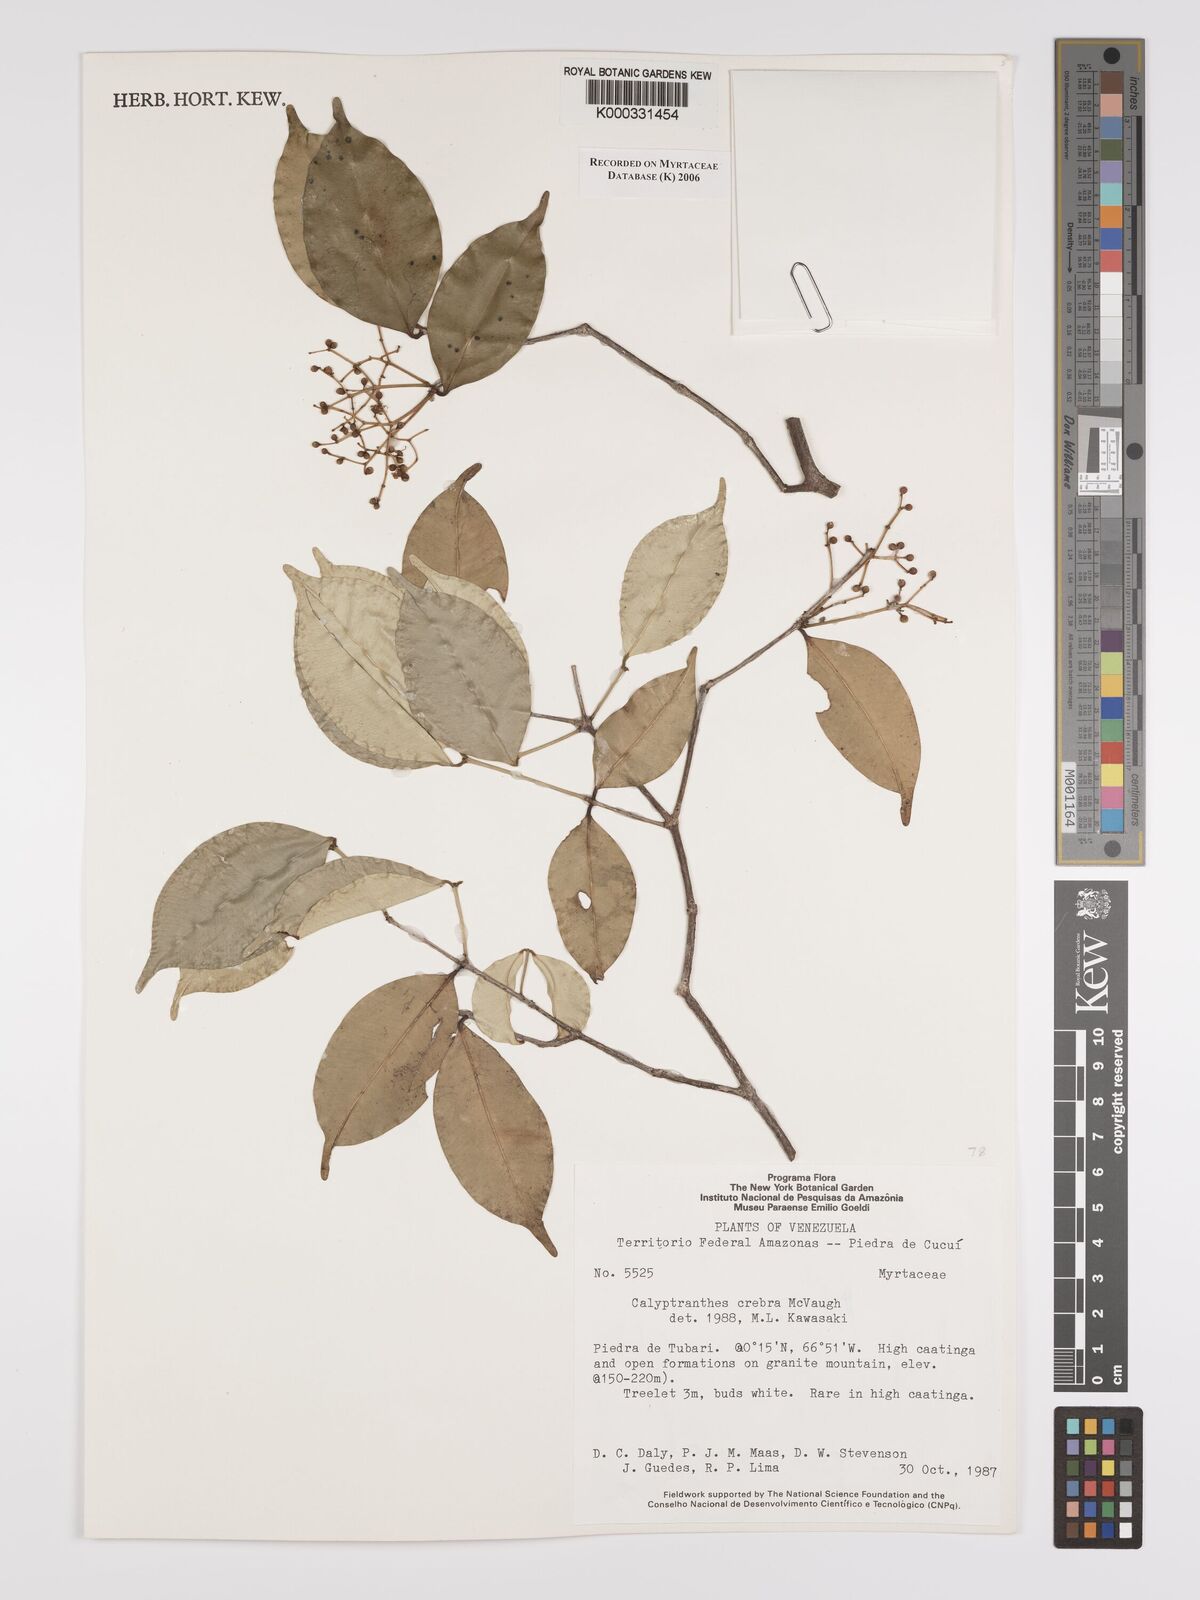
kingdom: Plantae
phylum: Tracheophyta
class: Magnoliopsida
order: Myrtales
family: Myrtaceae
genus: Calyptranthes
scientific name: Calyptranthes
